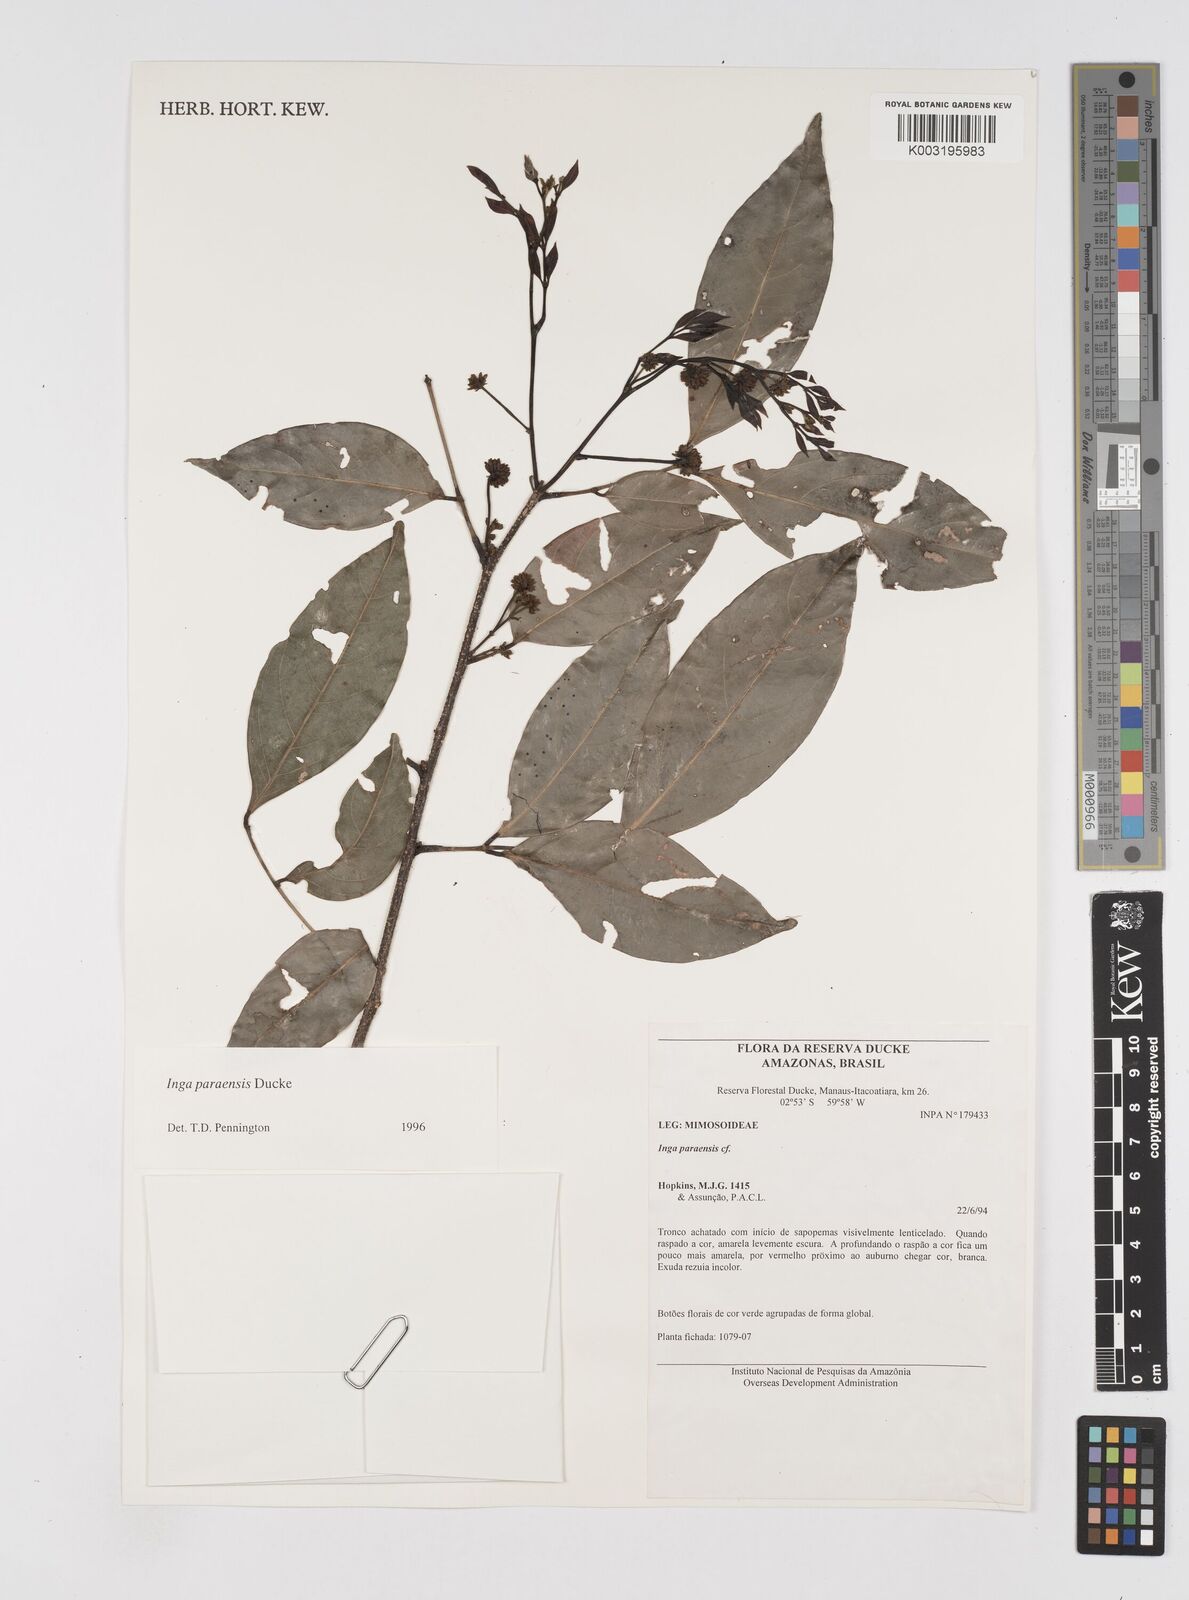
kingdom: Plantae
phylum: Tracheophyta
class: Magnoliopsida
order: Fabales
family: Fabaceae
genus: Inga
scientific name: Inga paraensis
